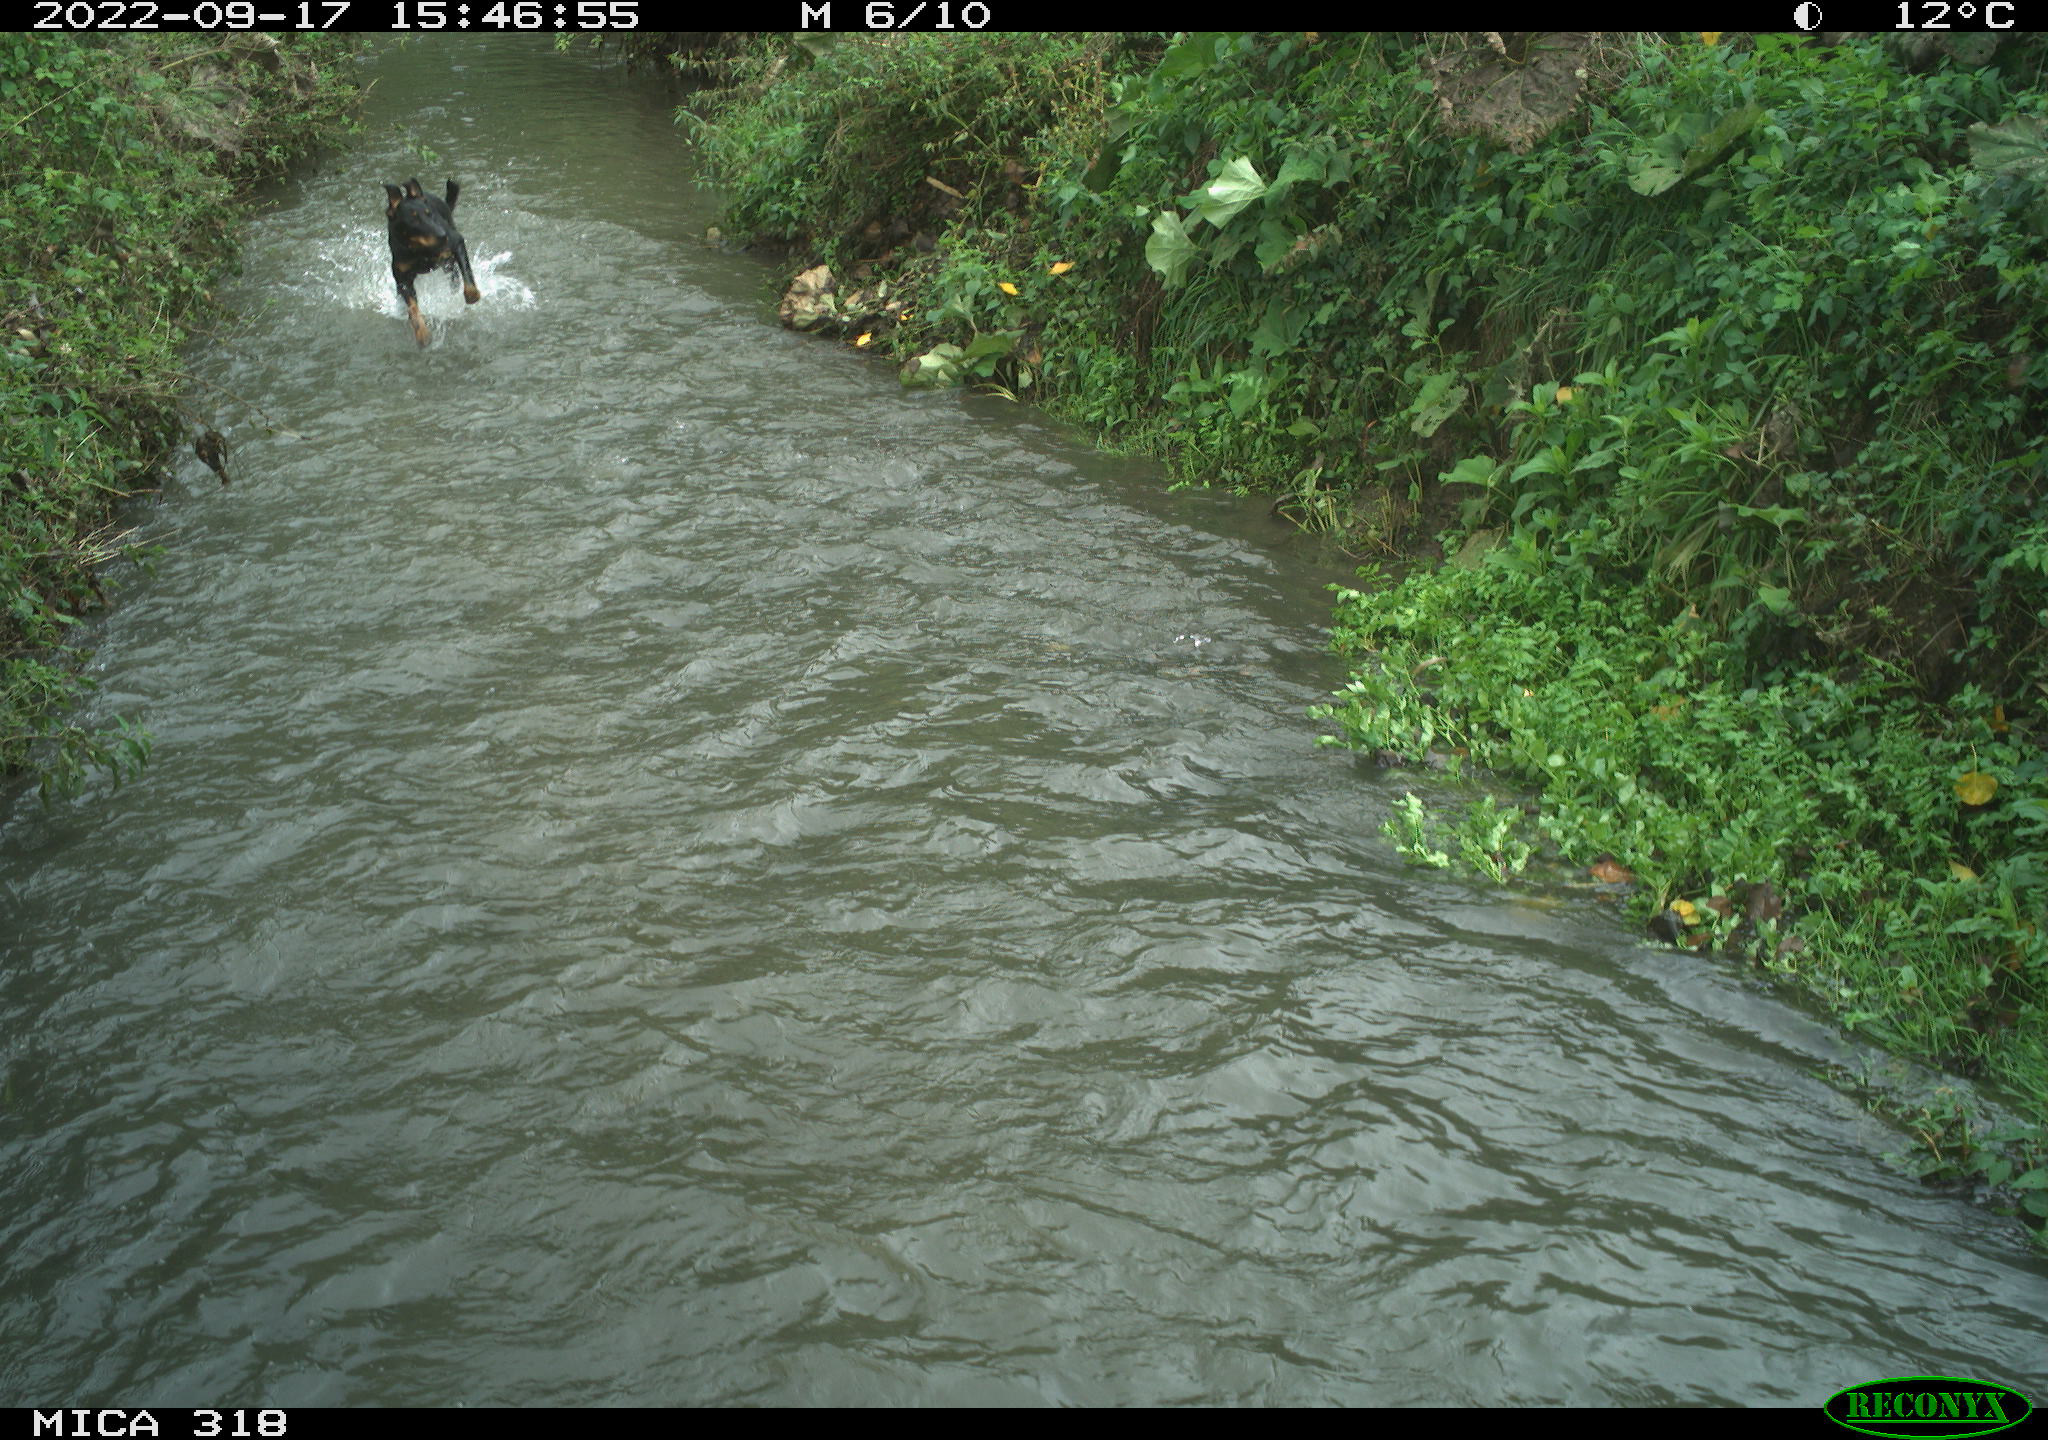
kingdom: Animalia
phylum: Chordata
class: Mammalia
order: Carnivora
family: Canidae
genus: Canis
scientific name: Canis lupus
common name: Gray wolf
